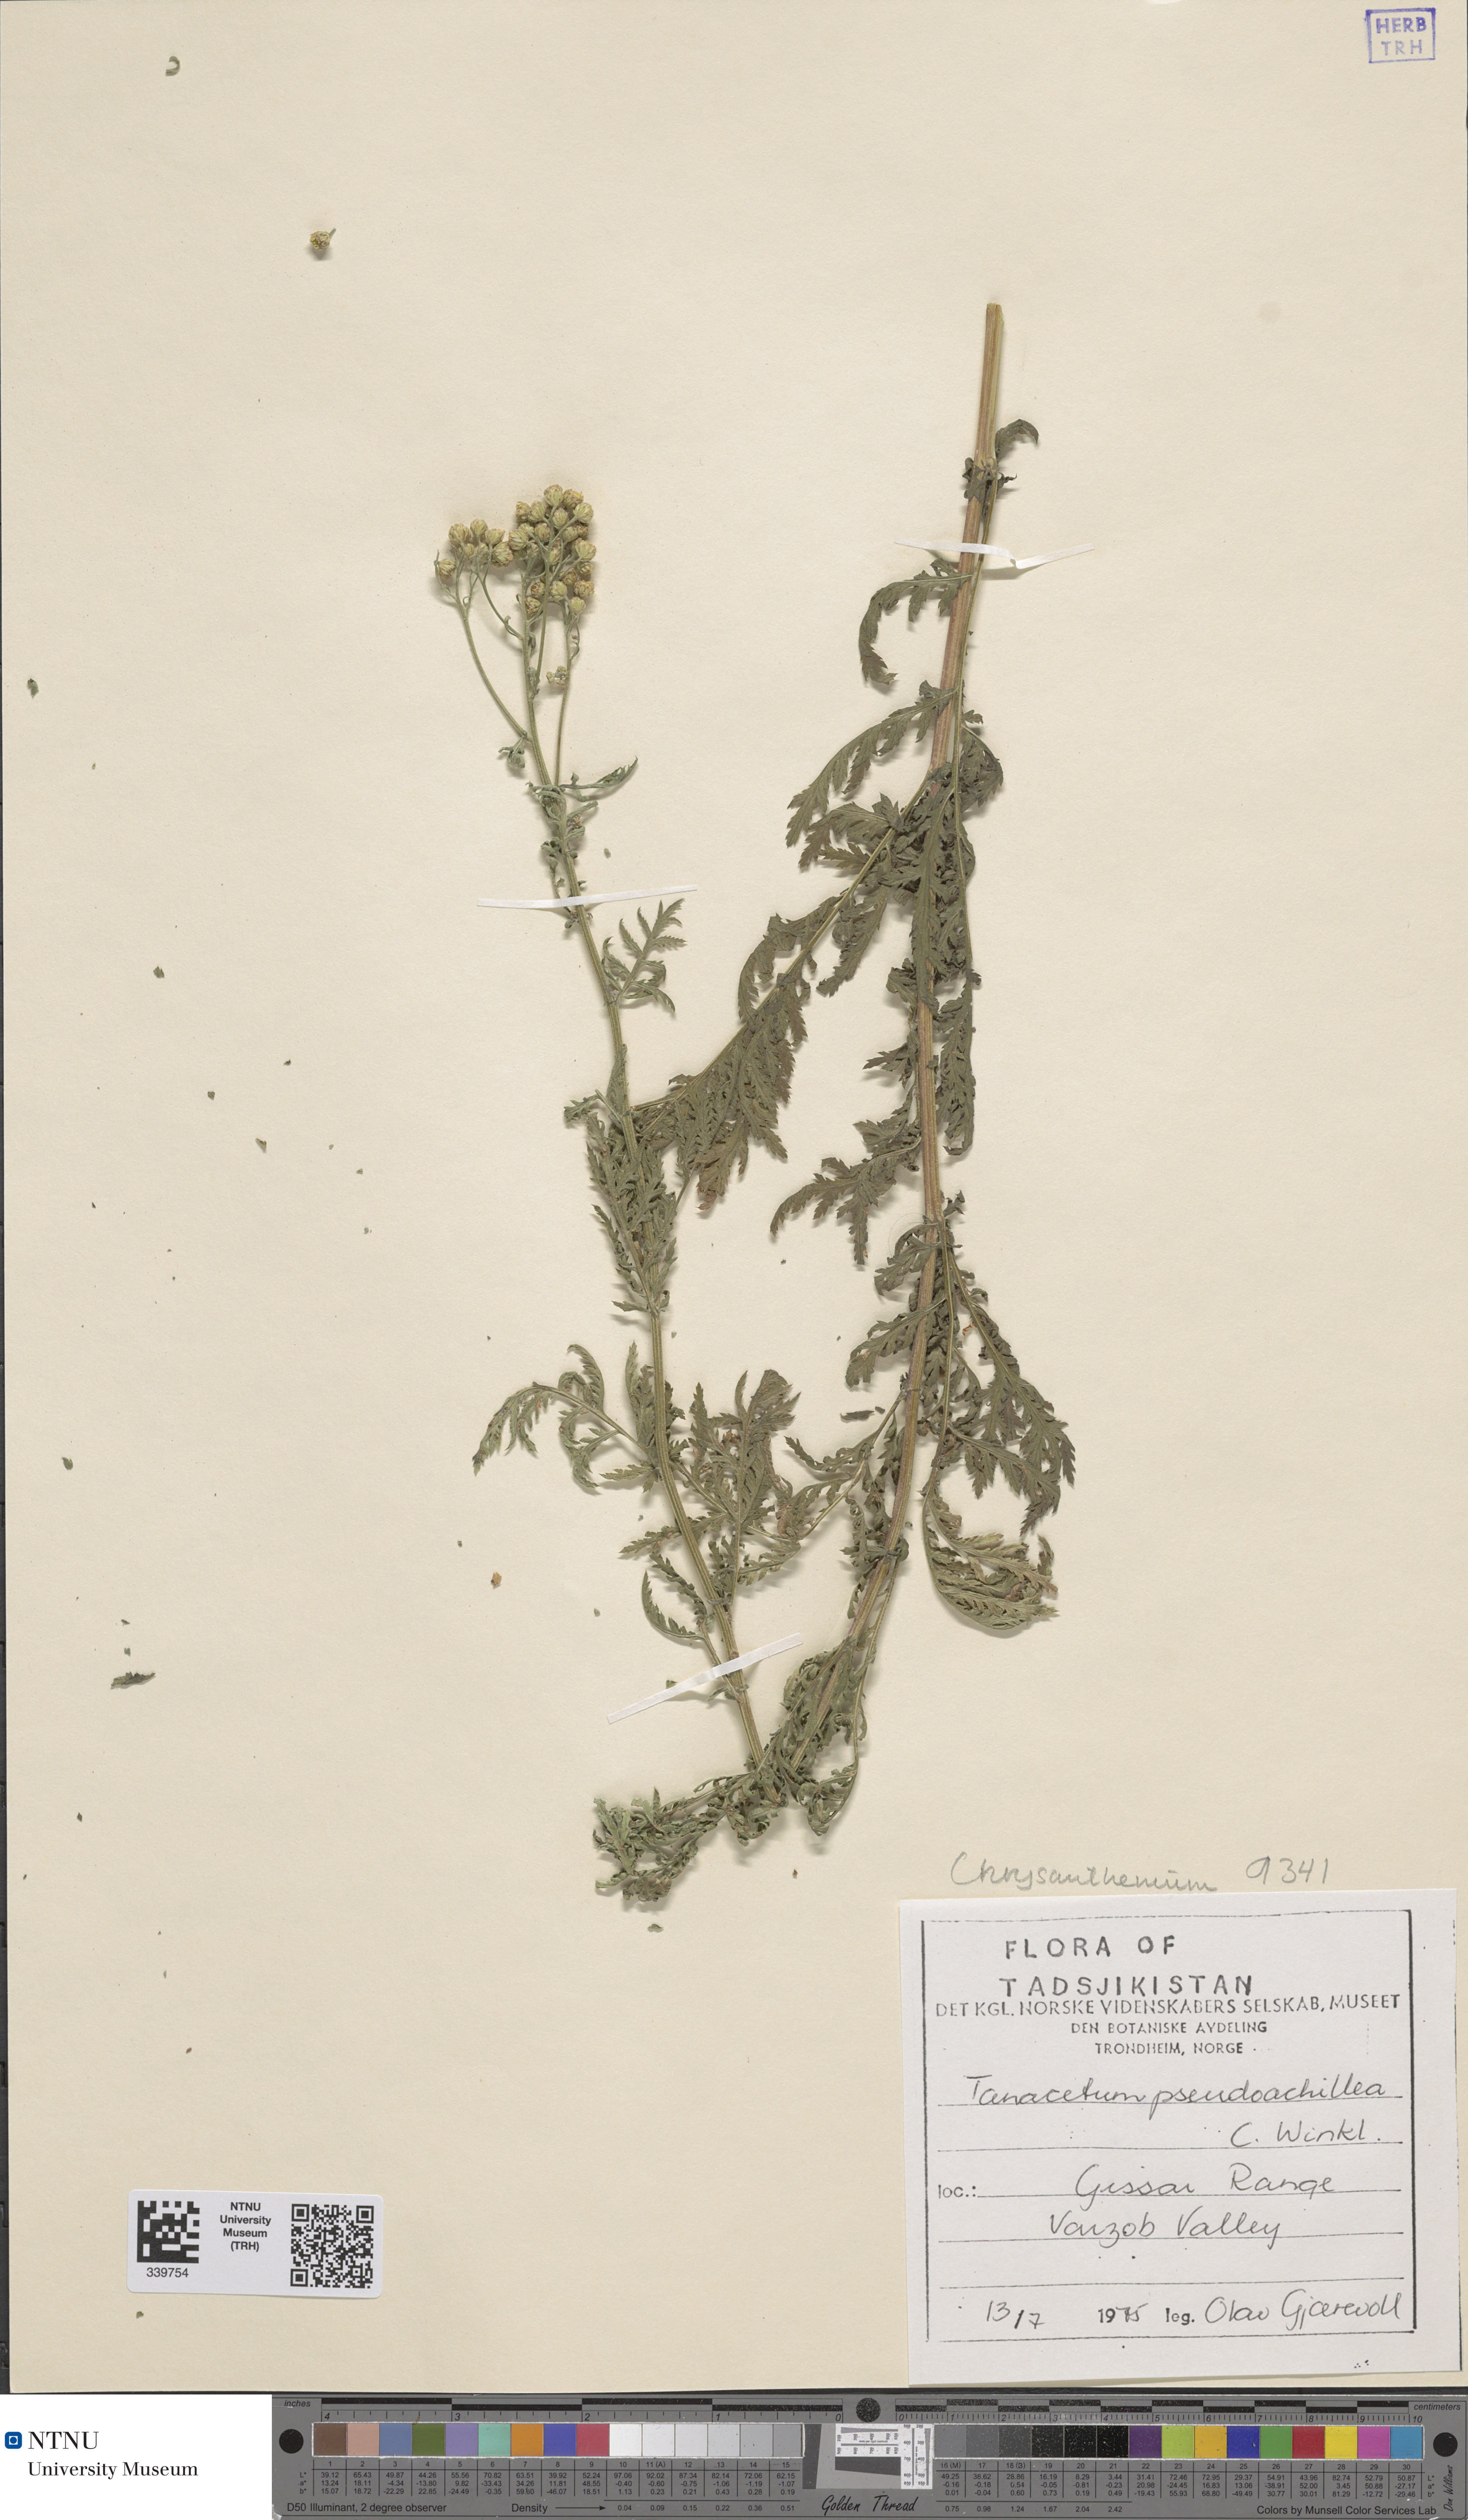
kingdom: Plantae
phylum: Tracheophyta
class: Magnoliopsida
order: Asterales
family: Asteraceae
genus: Lepidolopsis
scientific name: Lepidolopsis pseudoachillea
